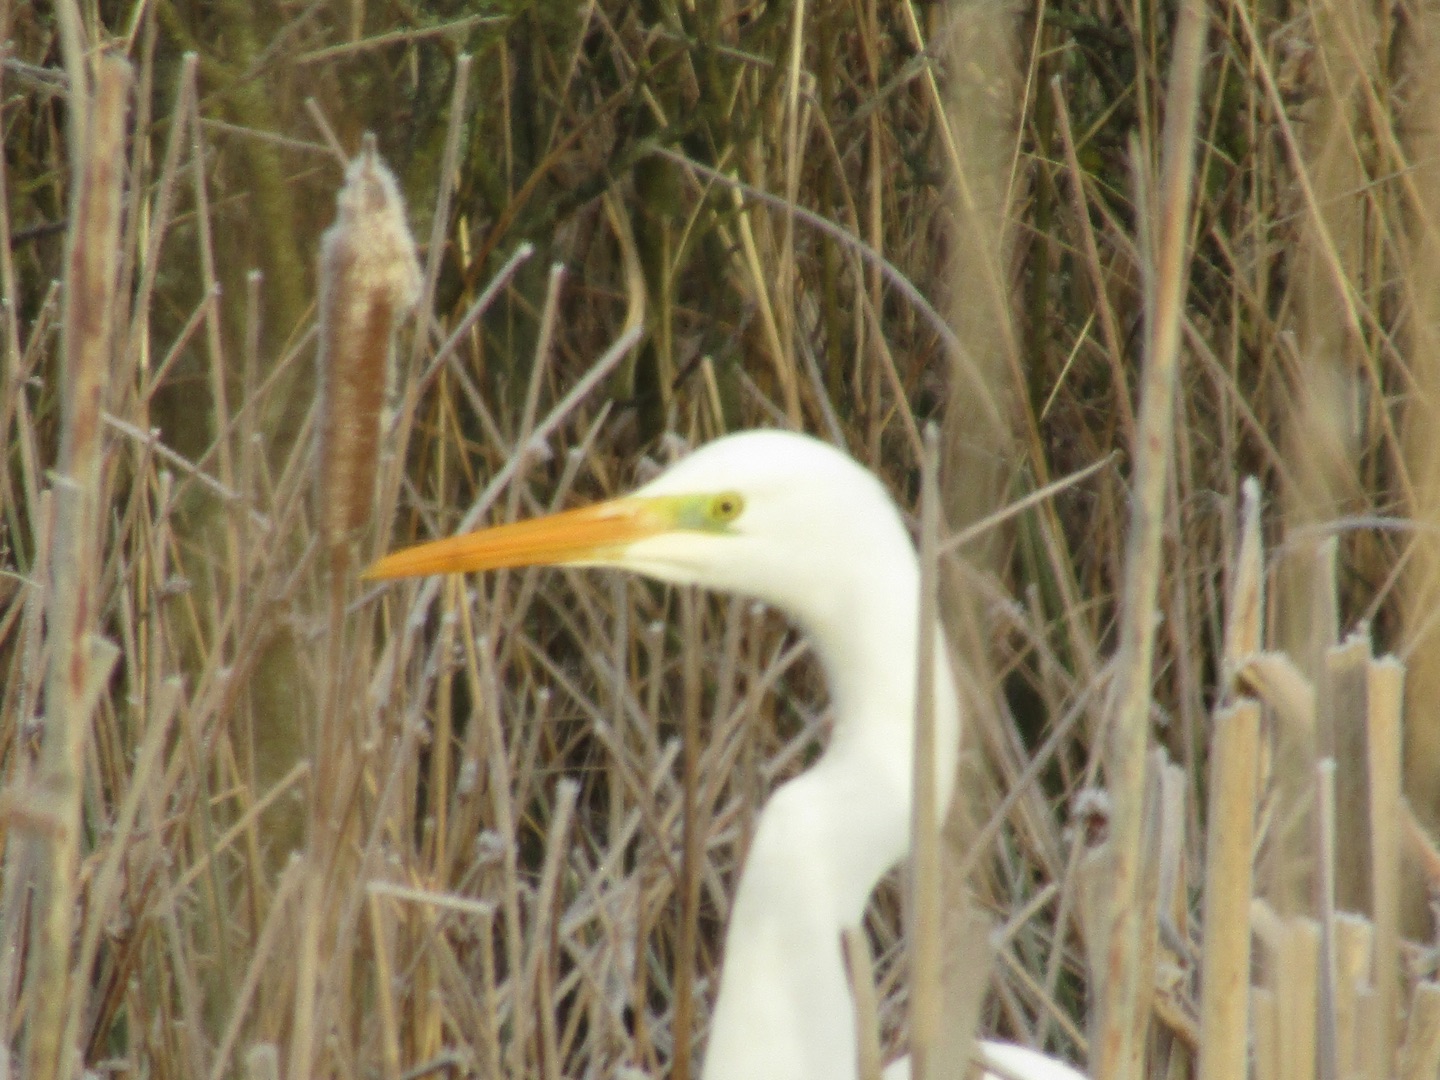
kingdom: Animalia
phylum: Chordata
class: Aves
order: Pelecaniformes
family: Ardeidae
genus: Ardea
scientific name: Ardea alba
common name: Sølvhejre
